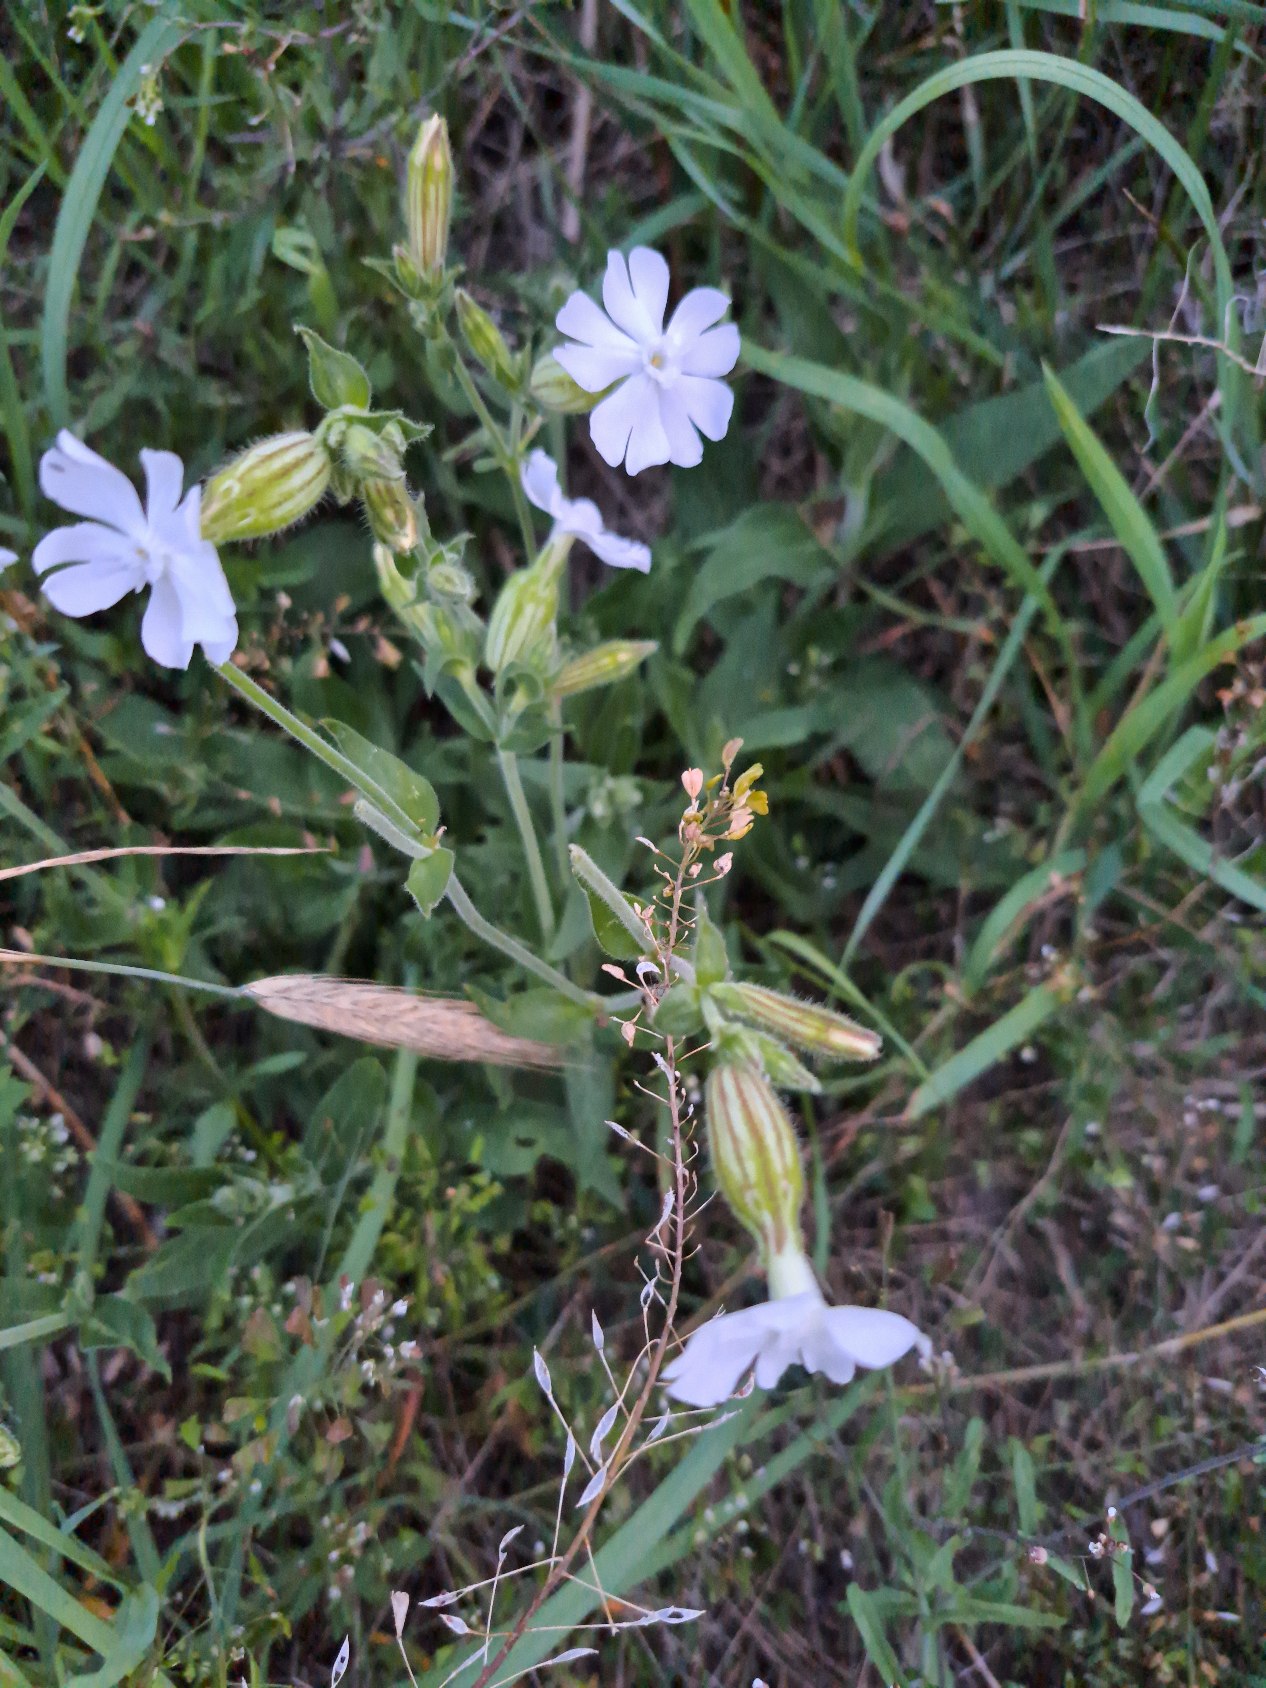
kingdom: Plantae
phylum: Tracheophyta
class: Magnoliopsida
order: Caryophyllales
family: Caryophyllaceae
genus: Silene
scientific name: Silene latifolia
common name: Aftenpragtstjerne
